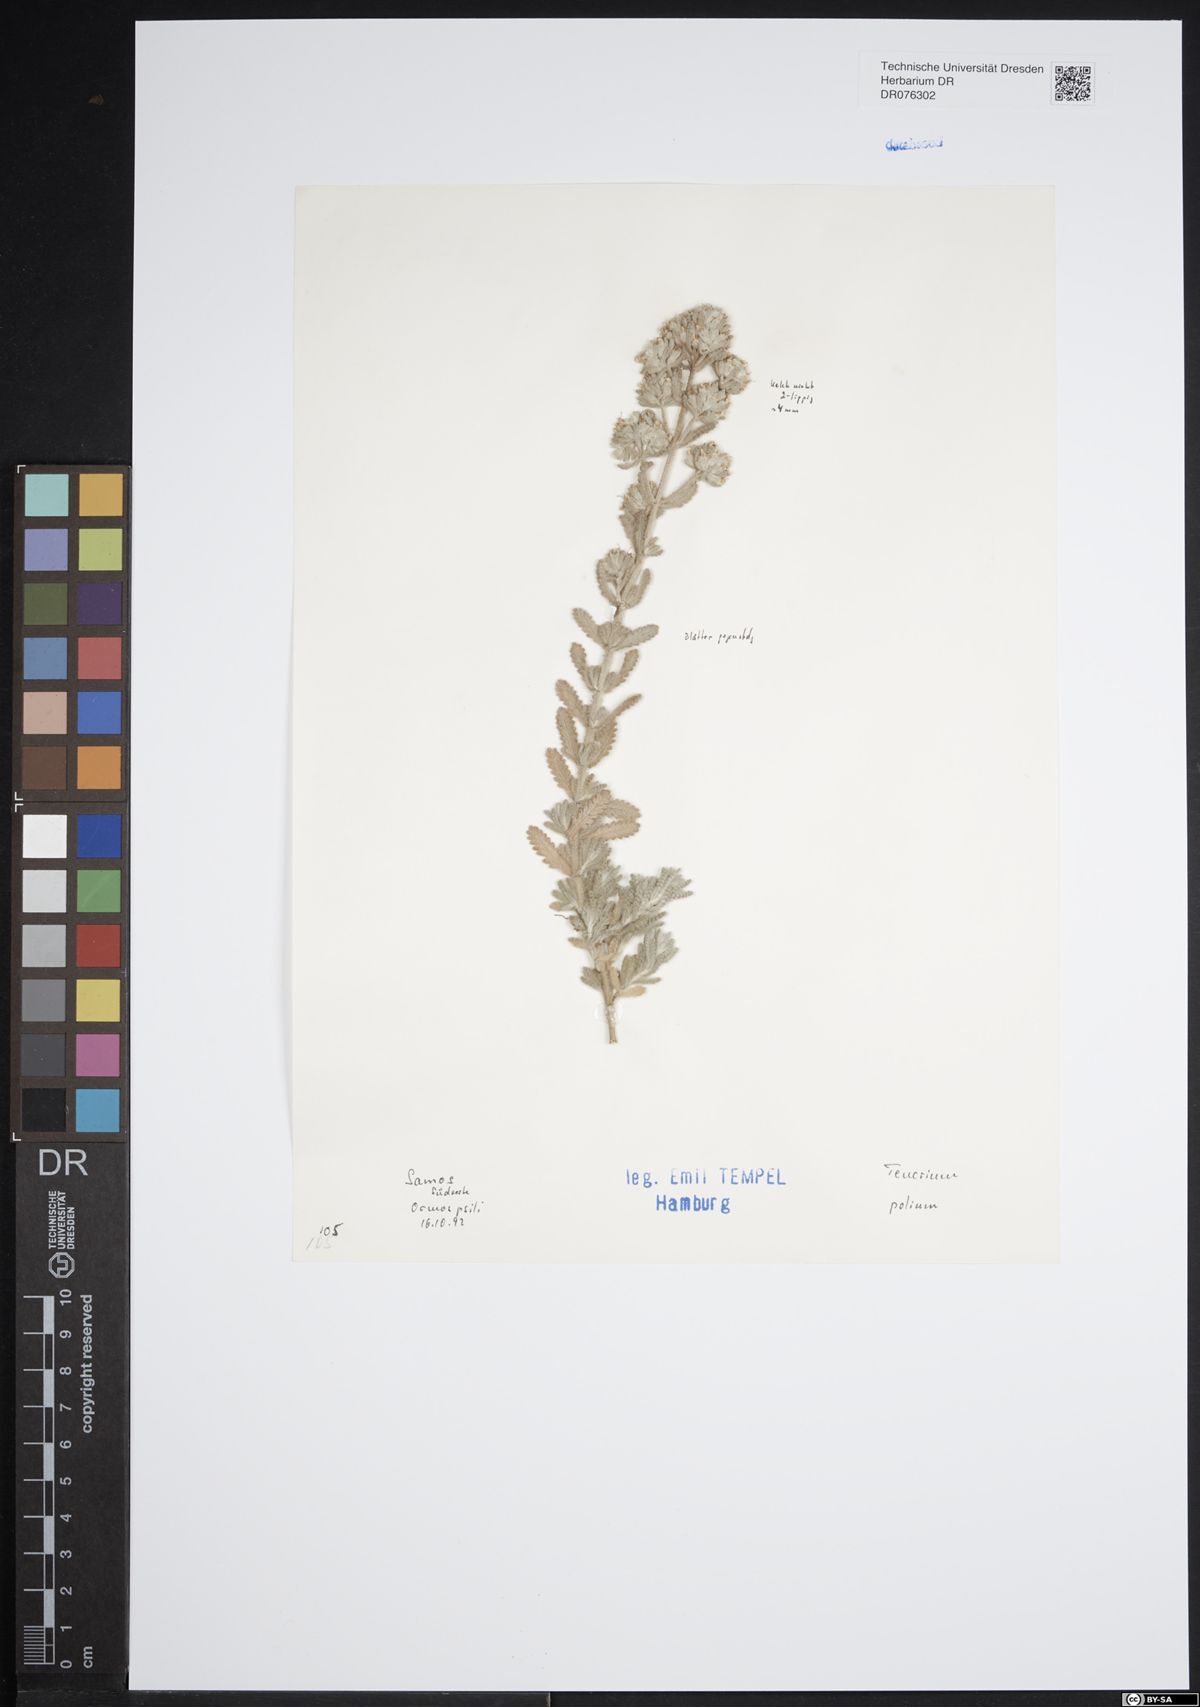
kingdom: Plantae
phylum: Tracheophyta
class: Magnoliopsida
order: Lamiales
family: Lamiaceae
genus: Teucrium
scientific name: Teucrium polium
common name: Poley
